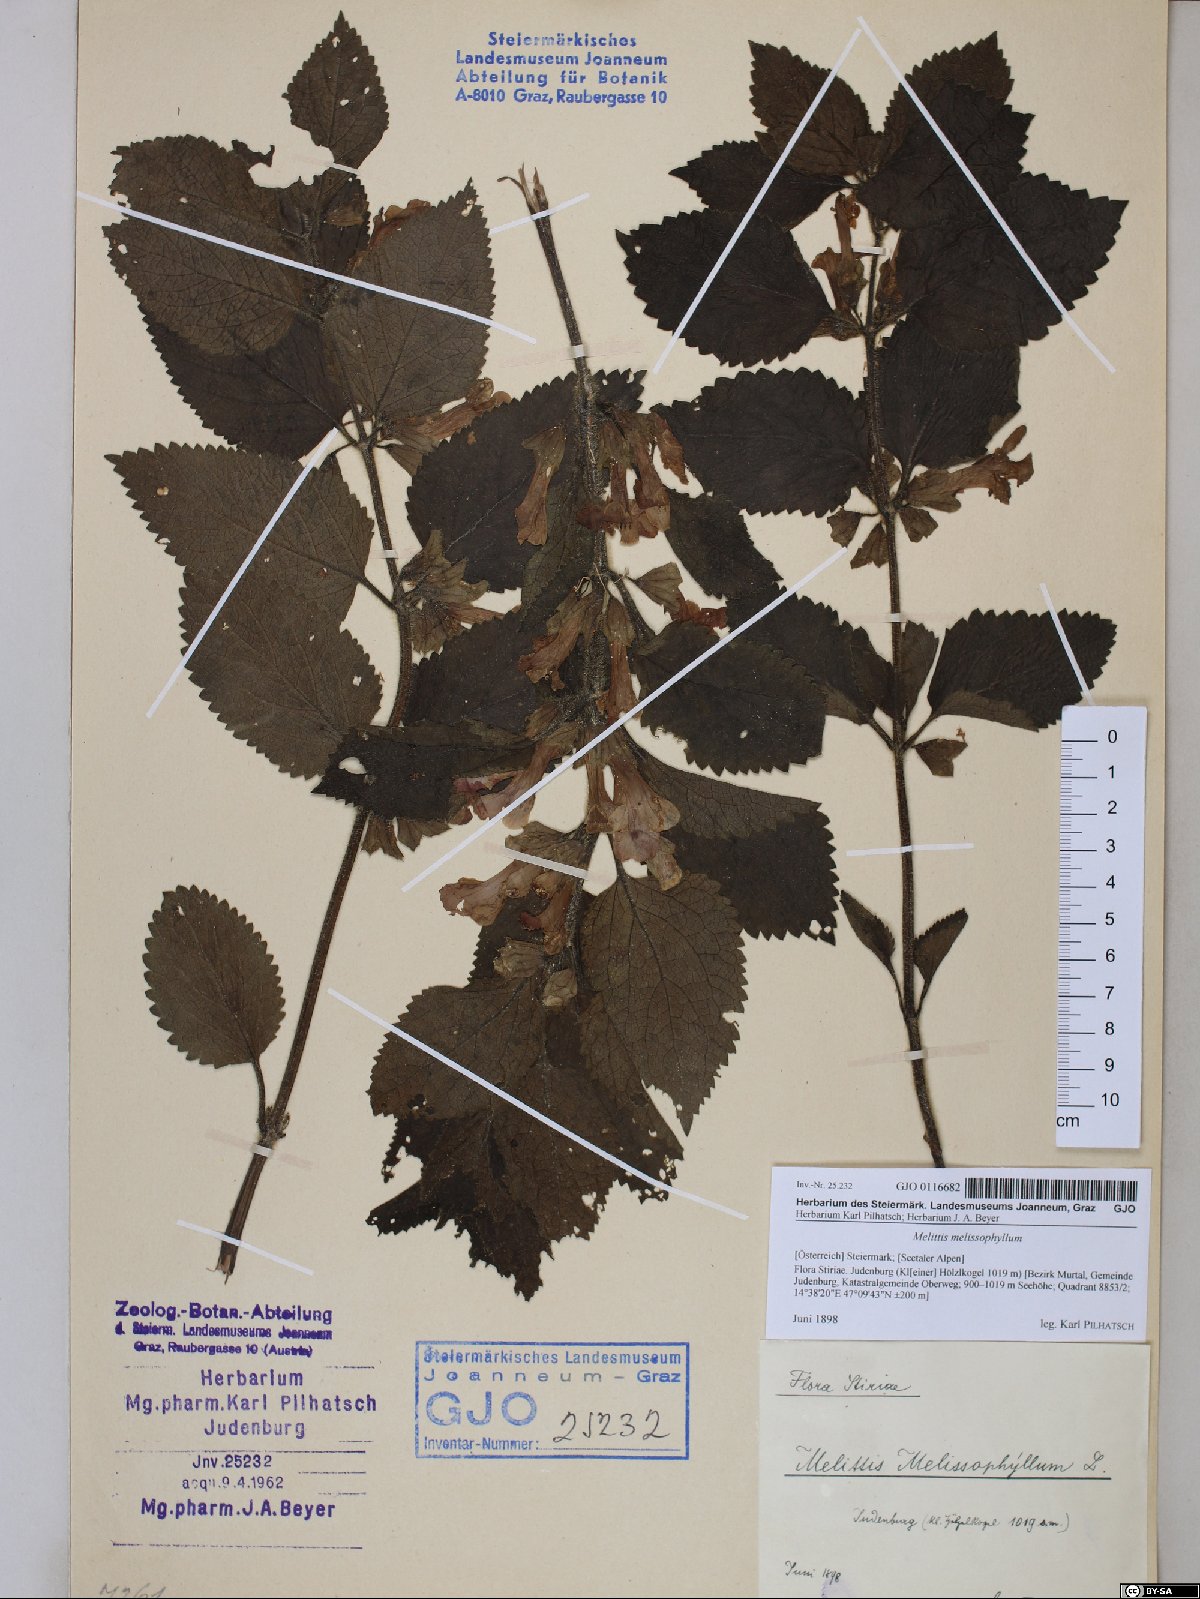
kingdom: Plantae
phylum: Tracheophyta
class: Magnoliopsida
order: Lamiales
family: Lamiaceae
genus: Melittis
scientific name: Melittis melissophyllum
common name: Bastard balm
